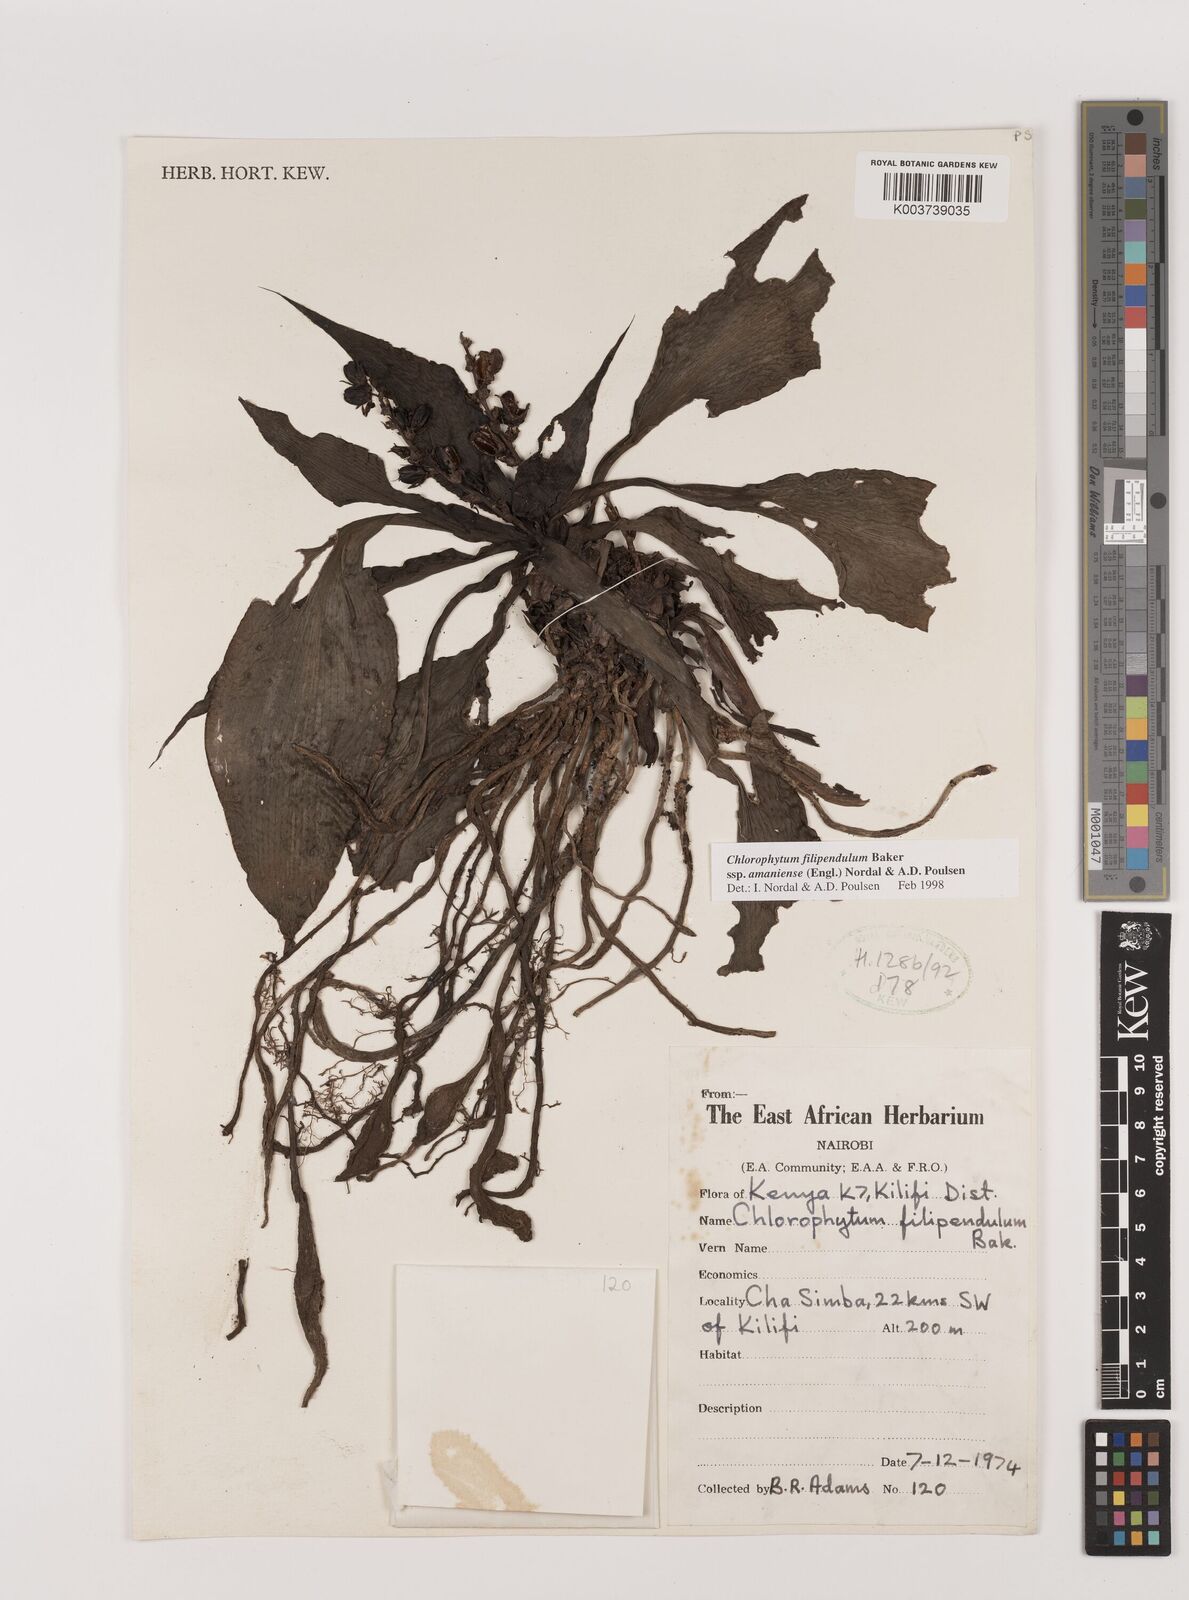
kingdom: Plantae
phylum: Tracheophyta
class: Liliopsida
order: Asparagales
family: Asparagaceae
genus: Chlorophytum
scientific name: Chlorophytum filipendulum
